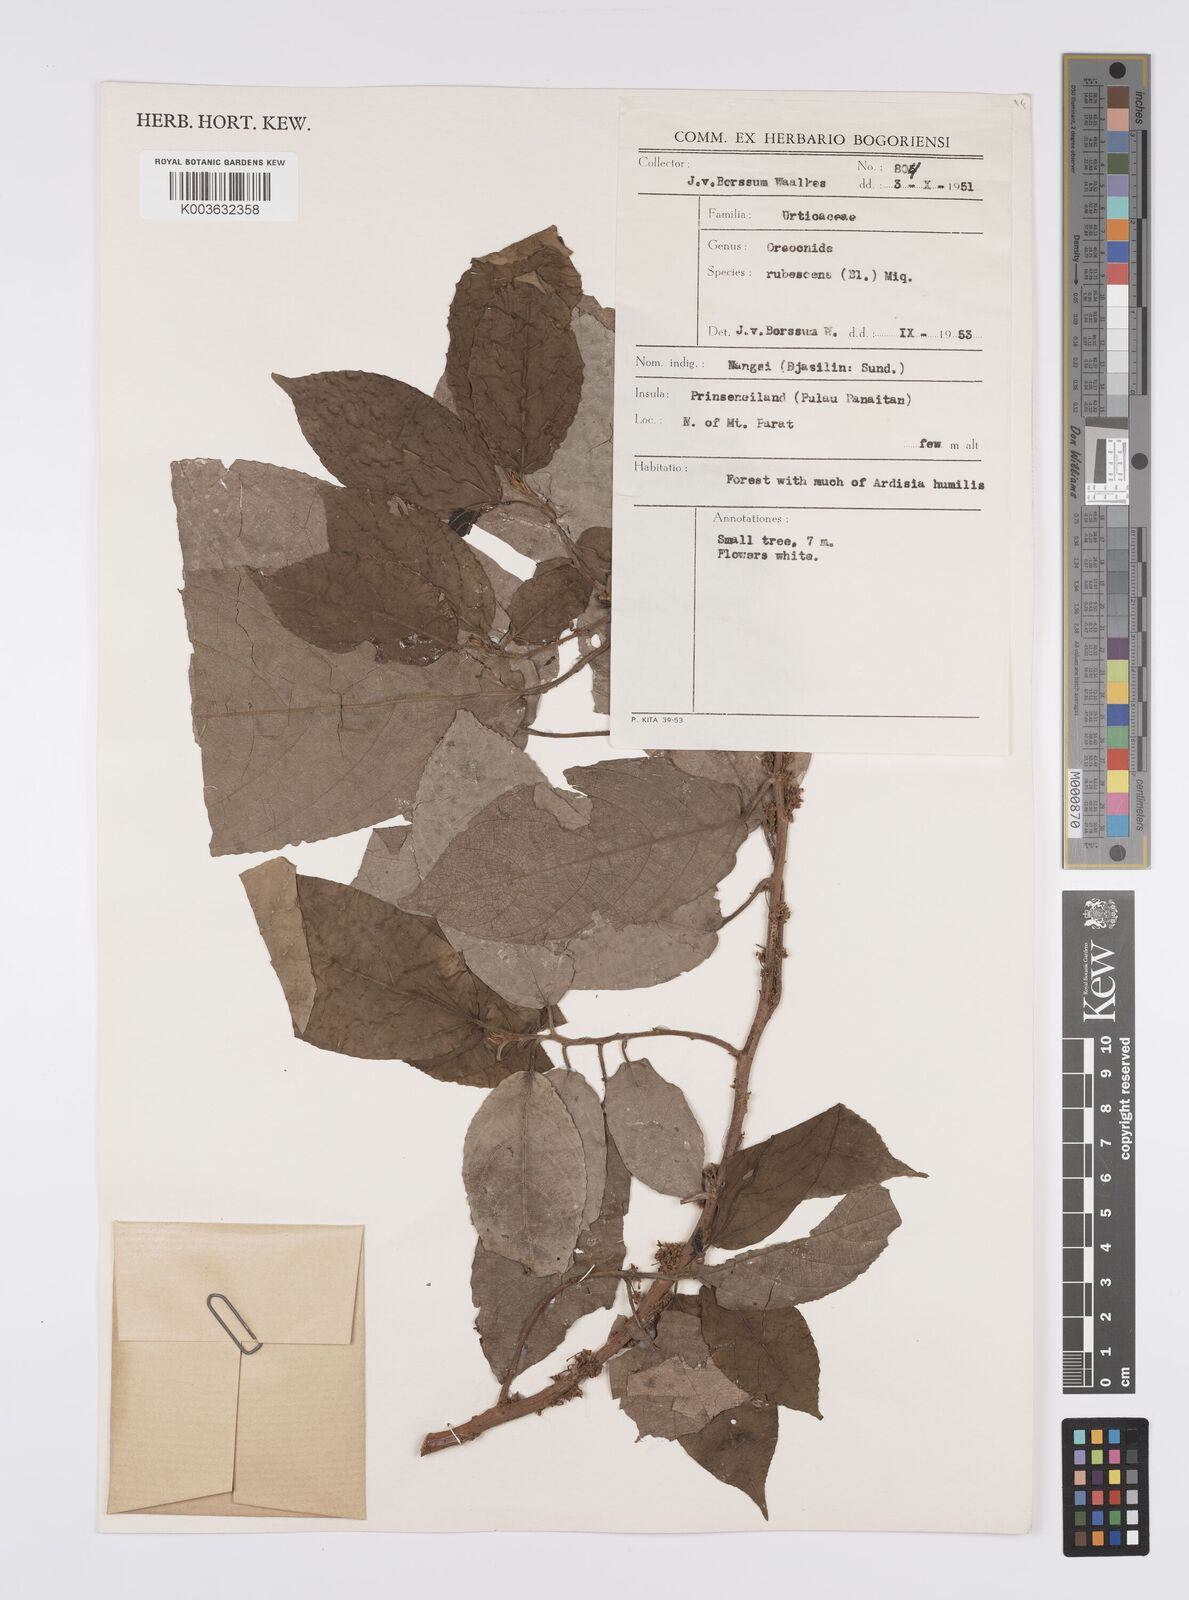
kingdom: Plantae
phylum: Tracheophyta
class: Magnoliopsida
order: Rosales
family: Urticaceae
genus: Oreocnide
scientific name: Oreocnide rubescens
